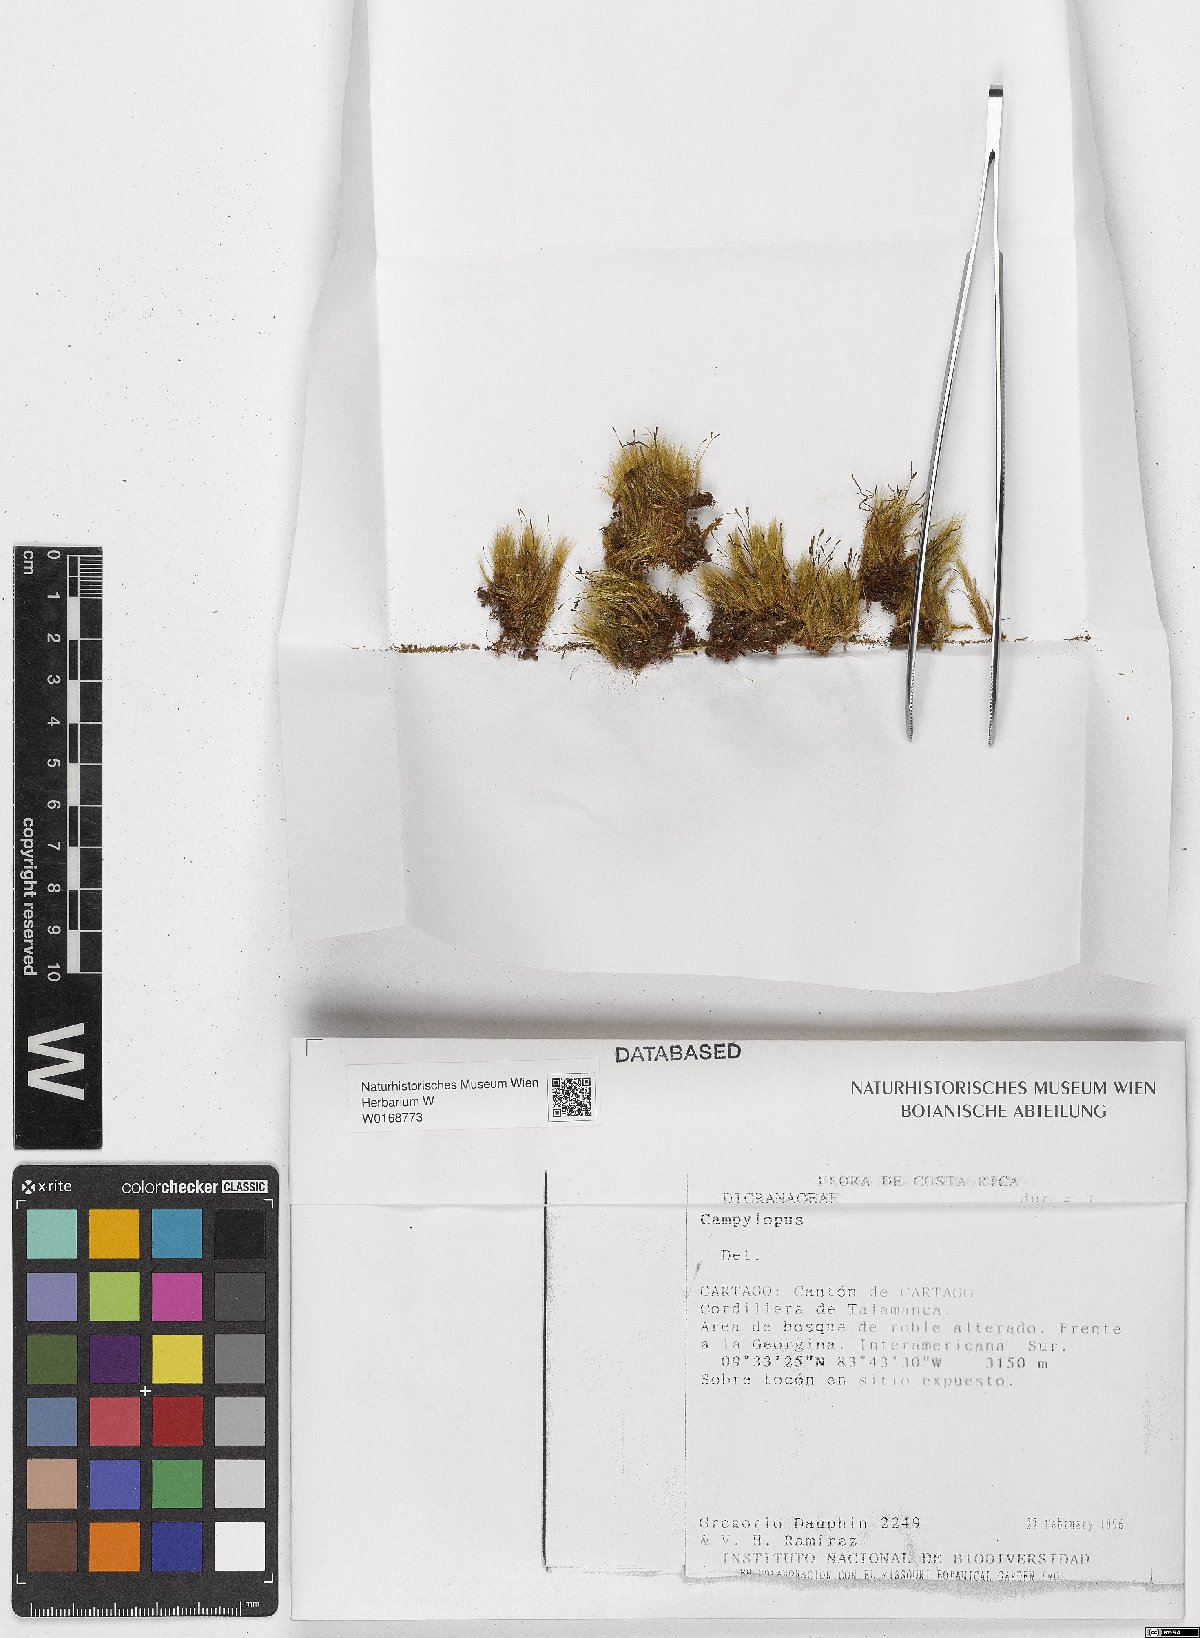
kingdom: Plantae
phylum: Bryophyta
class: Bryopsida
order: Dicranales
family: Leucobryaceae
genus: Campylopus
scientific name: Campylopus
